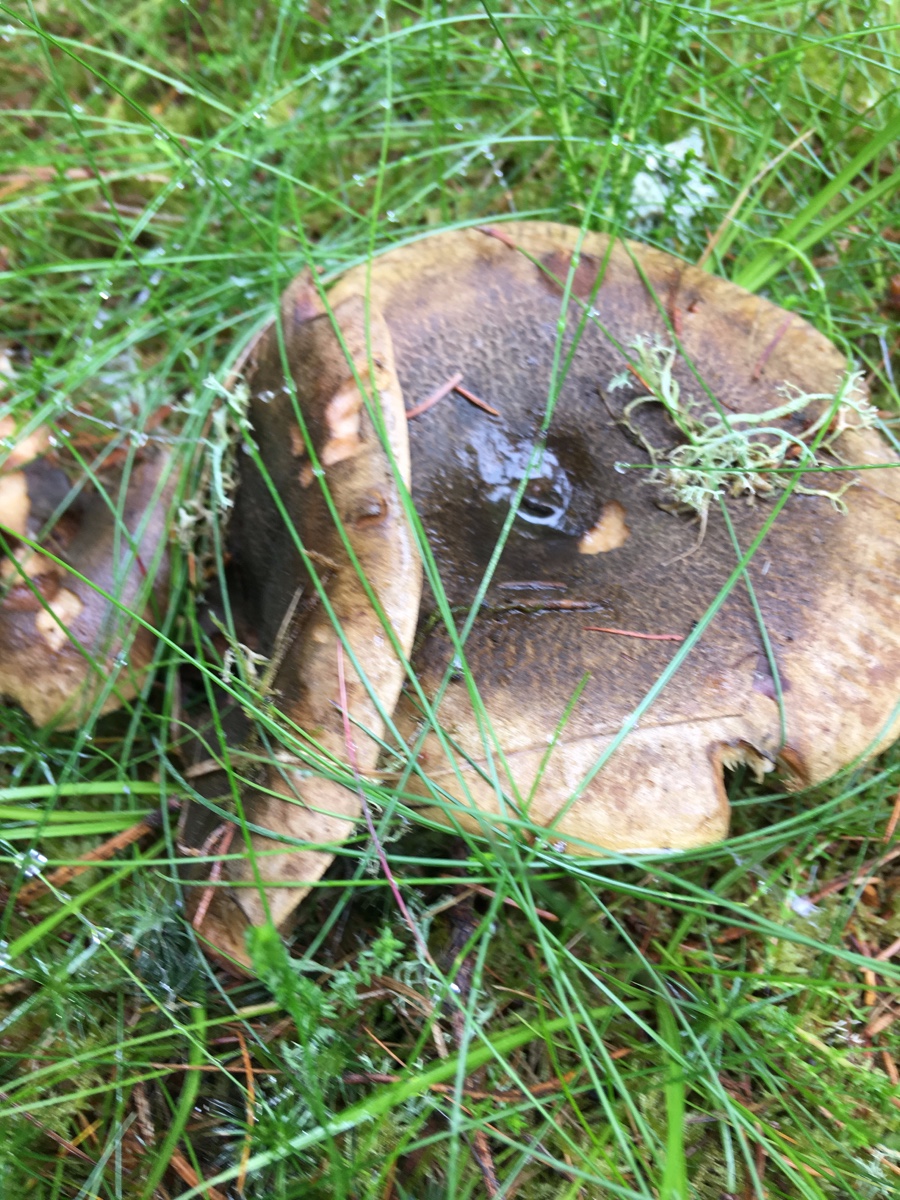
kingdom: Fungi
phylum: Basidiomycota
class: Agaricomycetes
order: Russulales
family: Russulaceae
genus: Lactarius
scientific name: Lactarius necator
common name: manddraber-mælkehat
